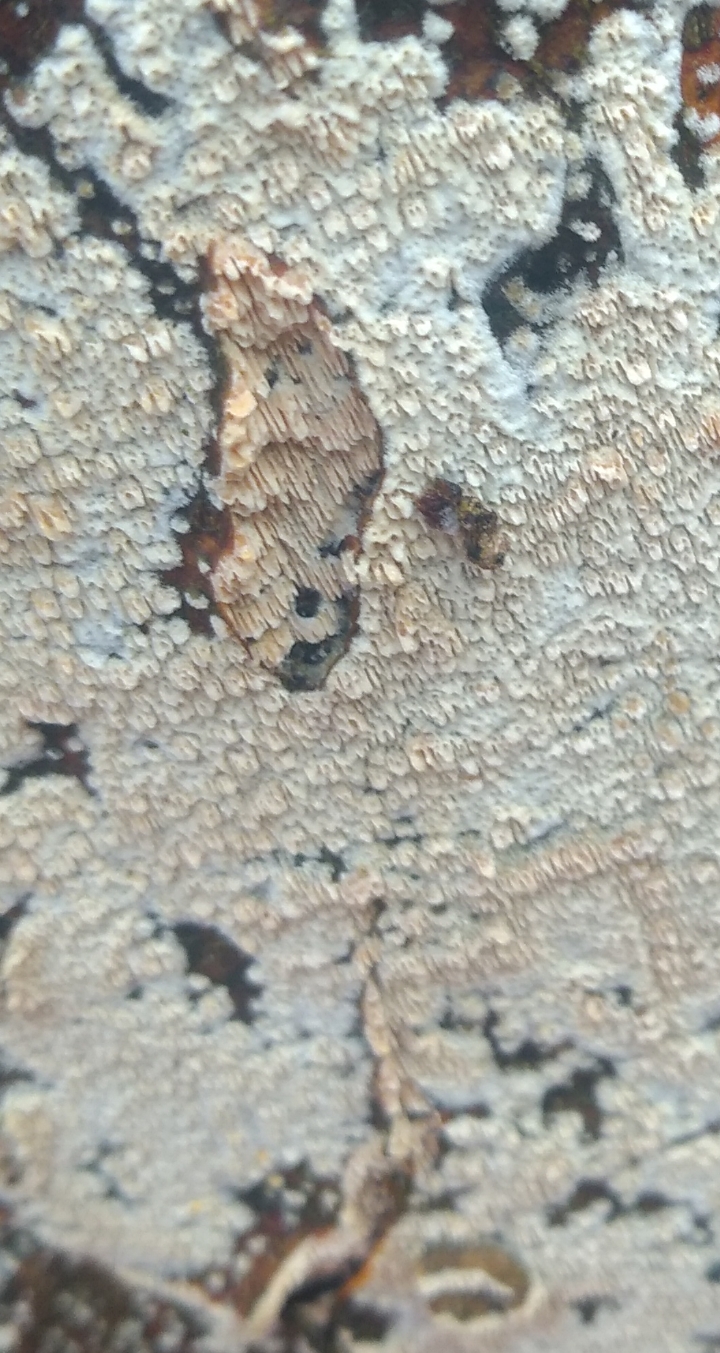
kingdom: Fungi
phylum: Basidiomycota
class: Agaricomycetes
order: Hymenochaetales
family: Schizoporaceae
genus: Xylodon
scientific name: Xylodon
